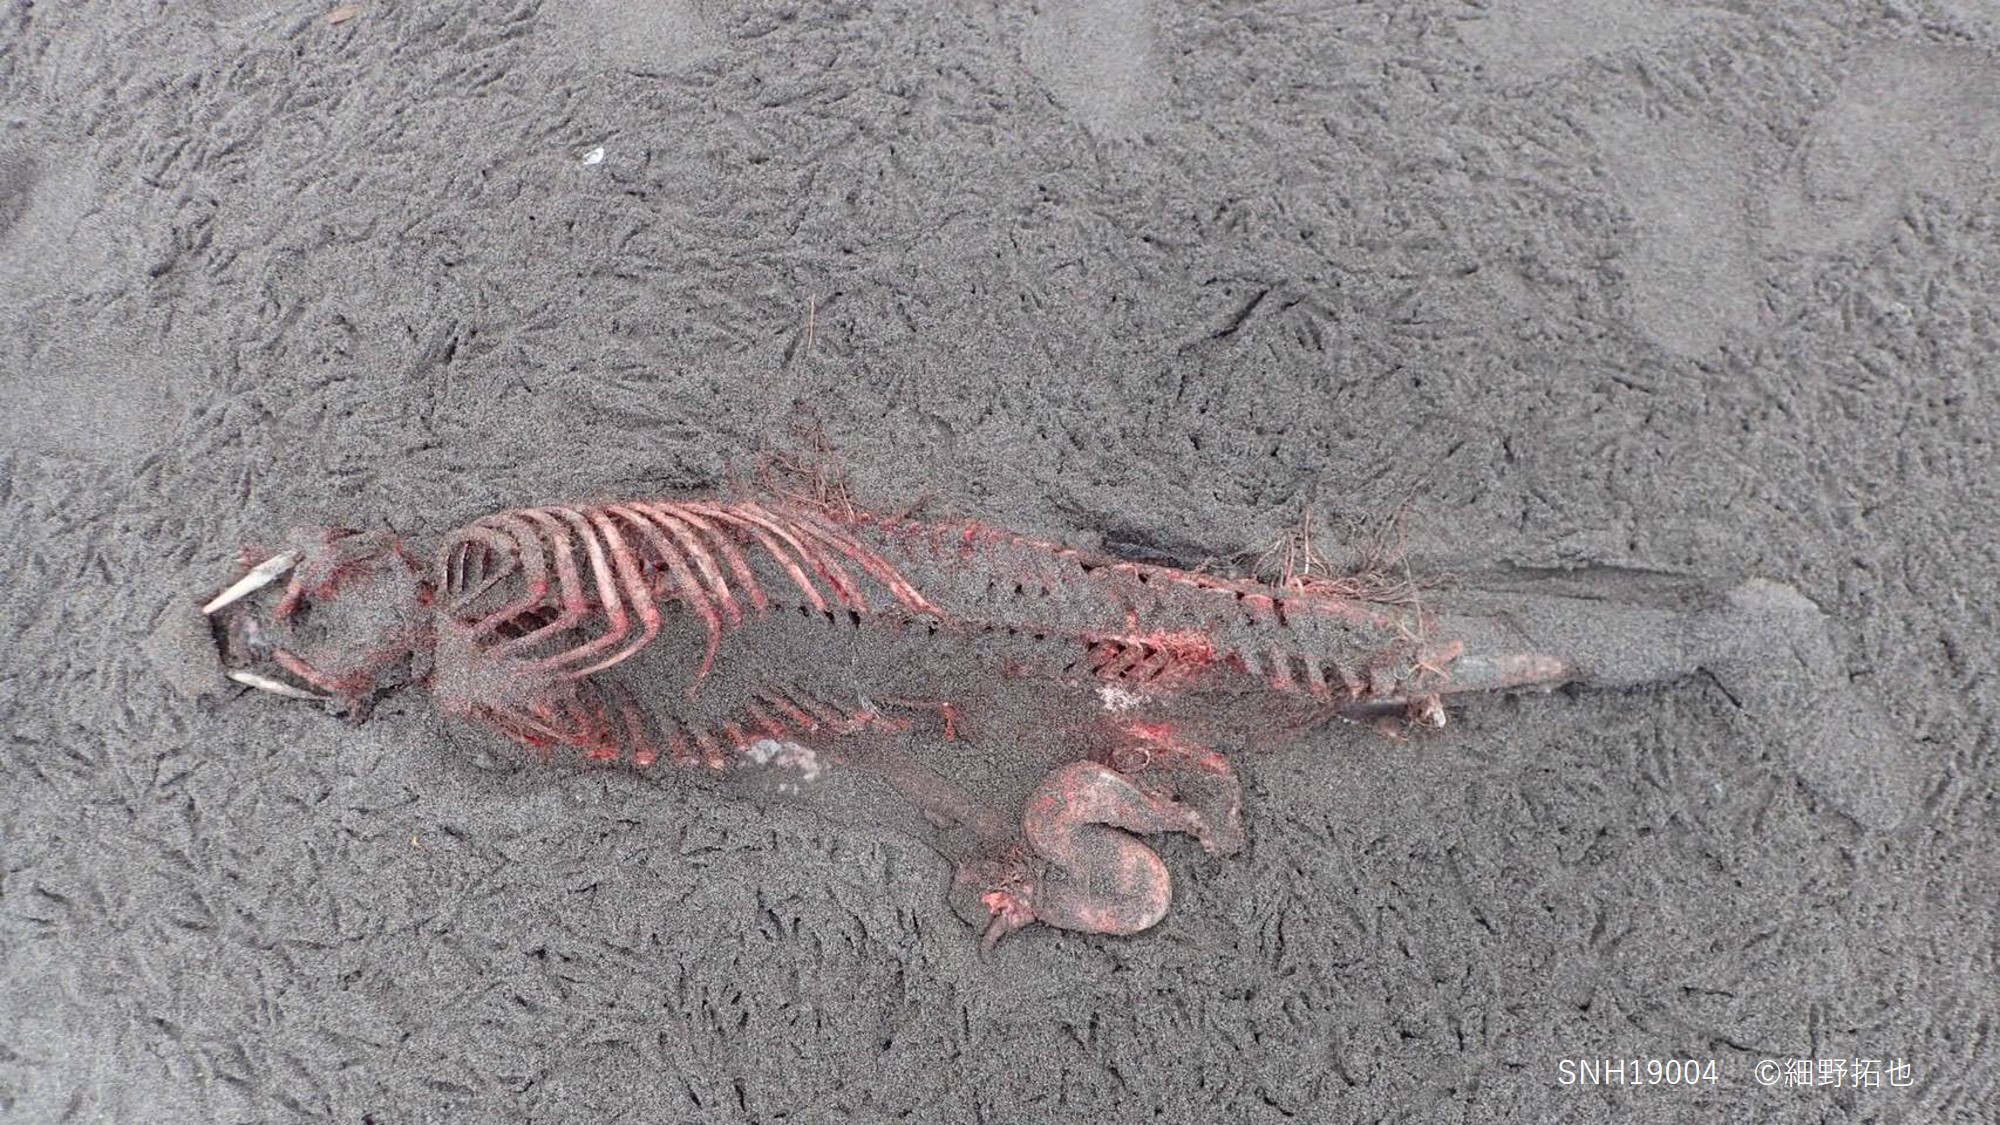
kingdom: Animalia
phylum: Chordata
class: Mammalia
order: Cetacea
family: Phocoenidae
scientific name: Phocoenidae
